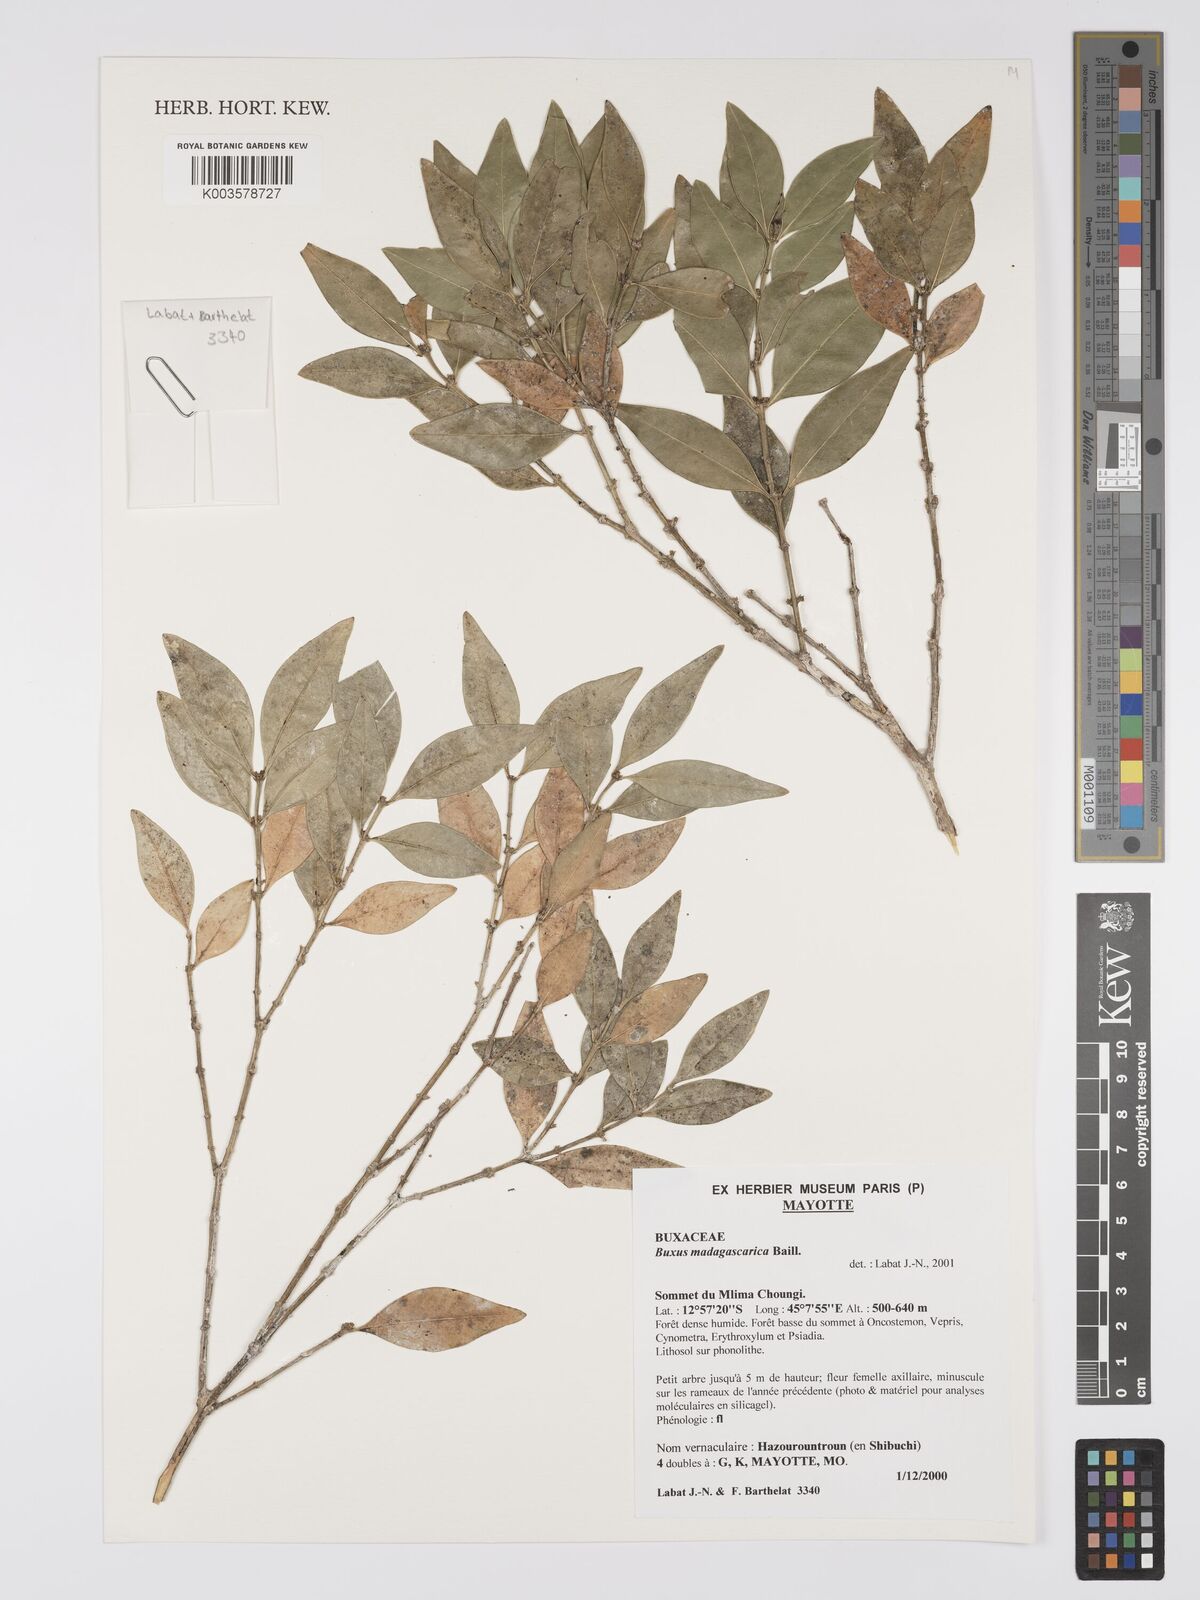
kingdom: Plantae
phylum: Tracheophyta
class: Magnoliopsida
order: Buxales
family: Buxaceae
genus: Buxus
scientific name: Buxus madagascarica
